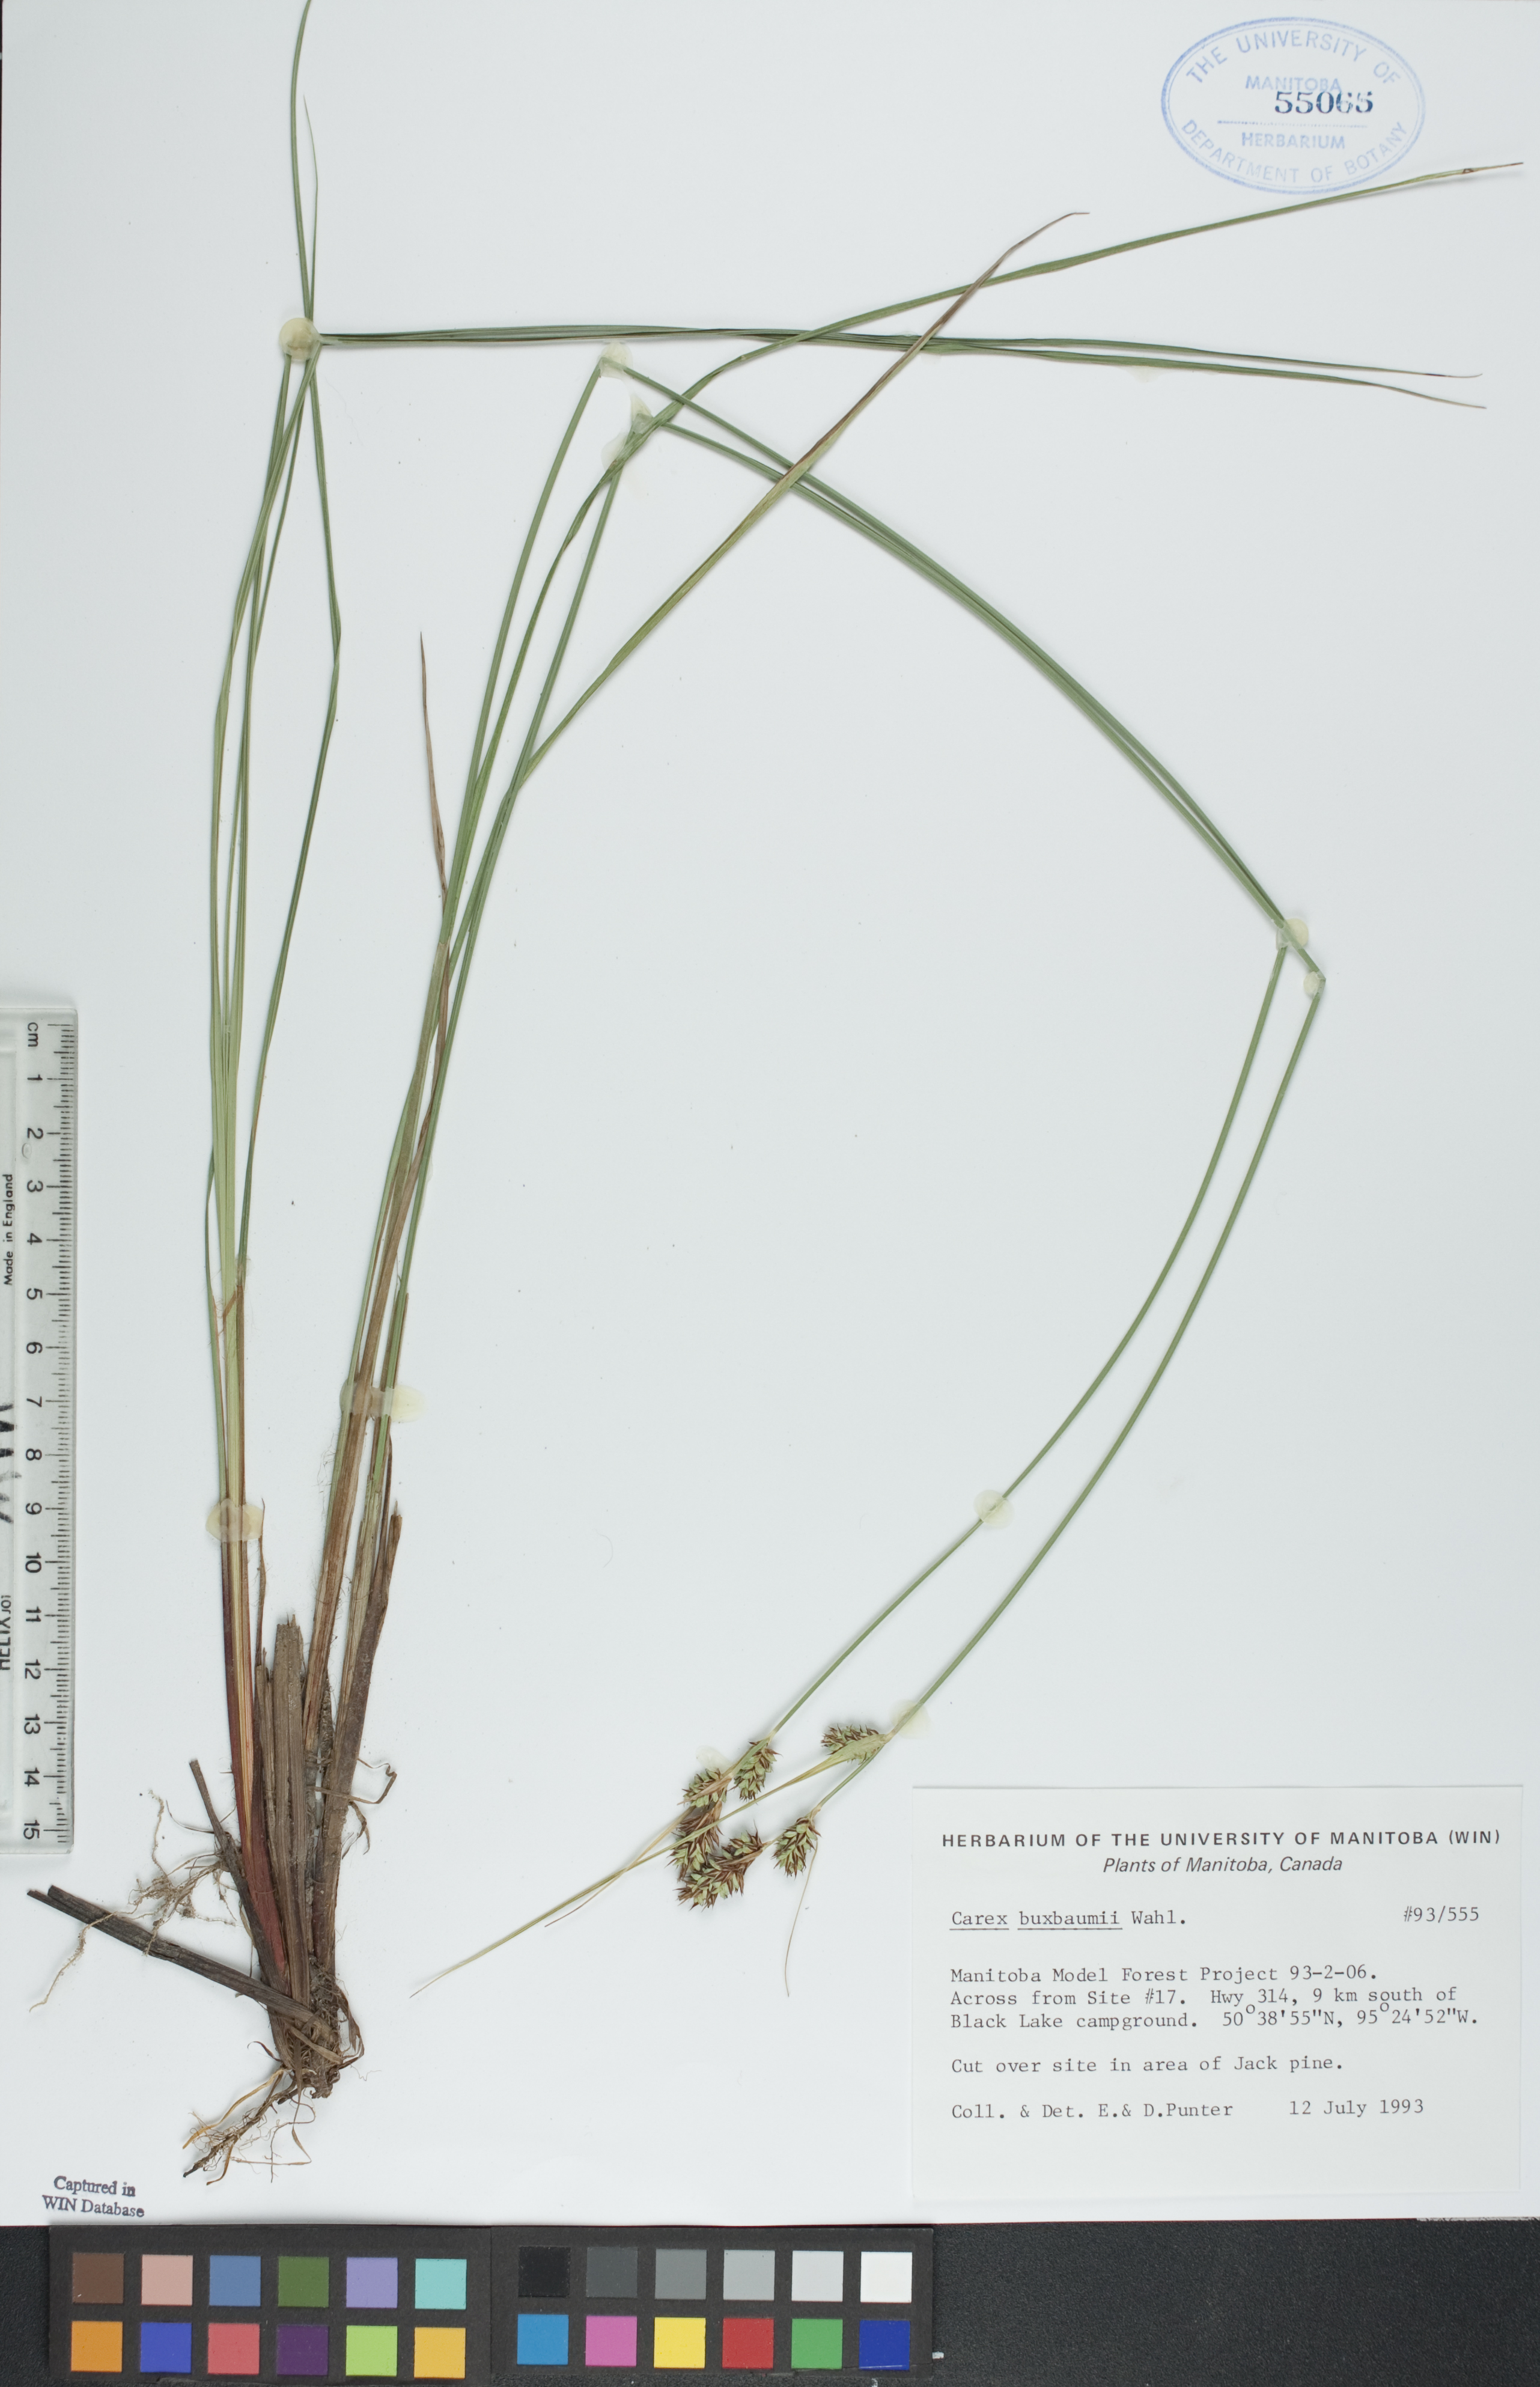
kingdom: Plantae
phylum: Tracheophyta
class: Liliopsida
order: Poales
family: Cyperaceae
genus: Carex
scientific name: Carex buxbaumii
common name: Club sedge
